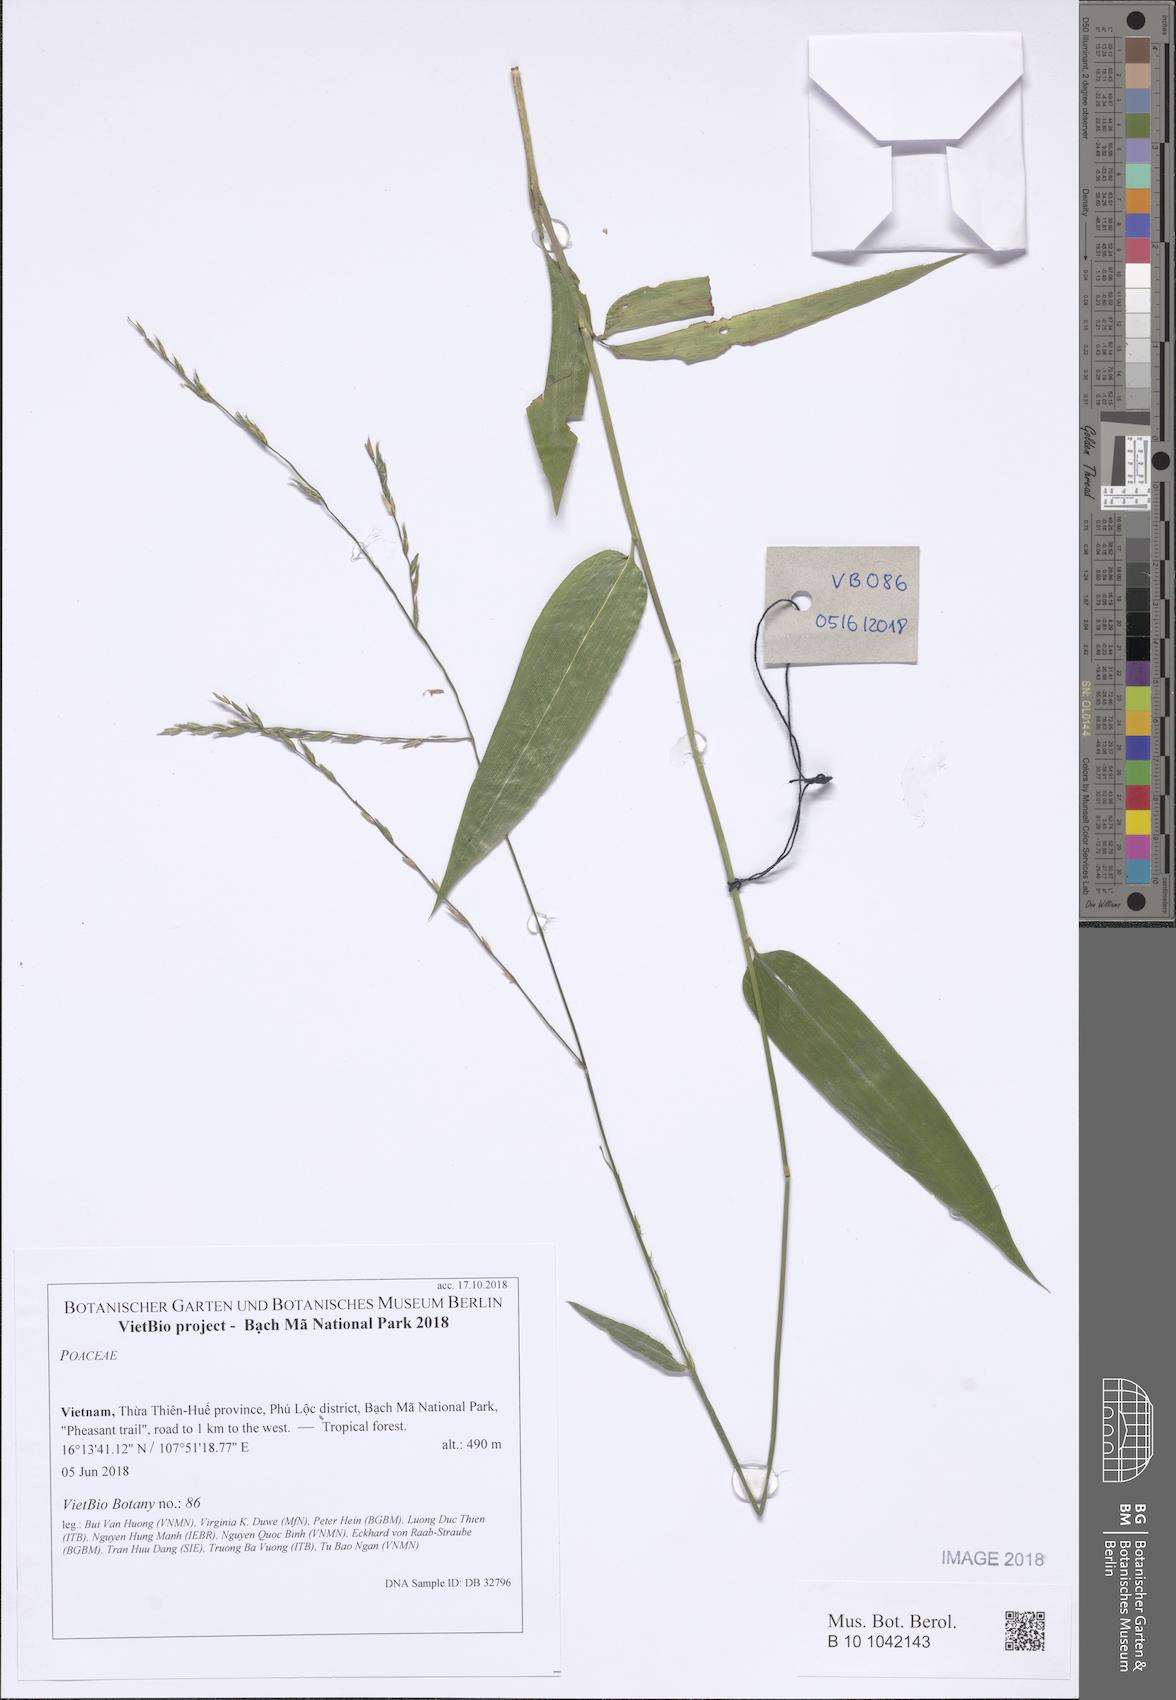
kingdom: Plantae
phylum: Tracheophyta
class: Liliopsida
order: Poales
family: Poaceae
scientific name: Poaceae
